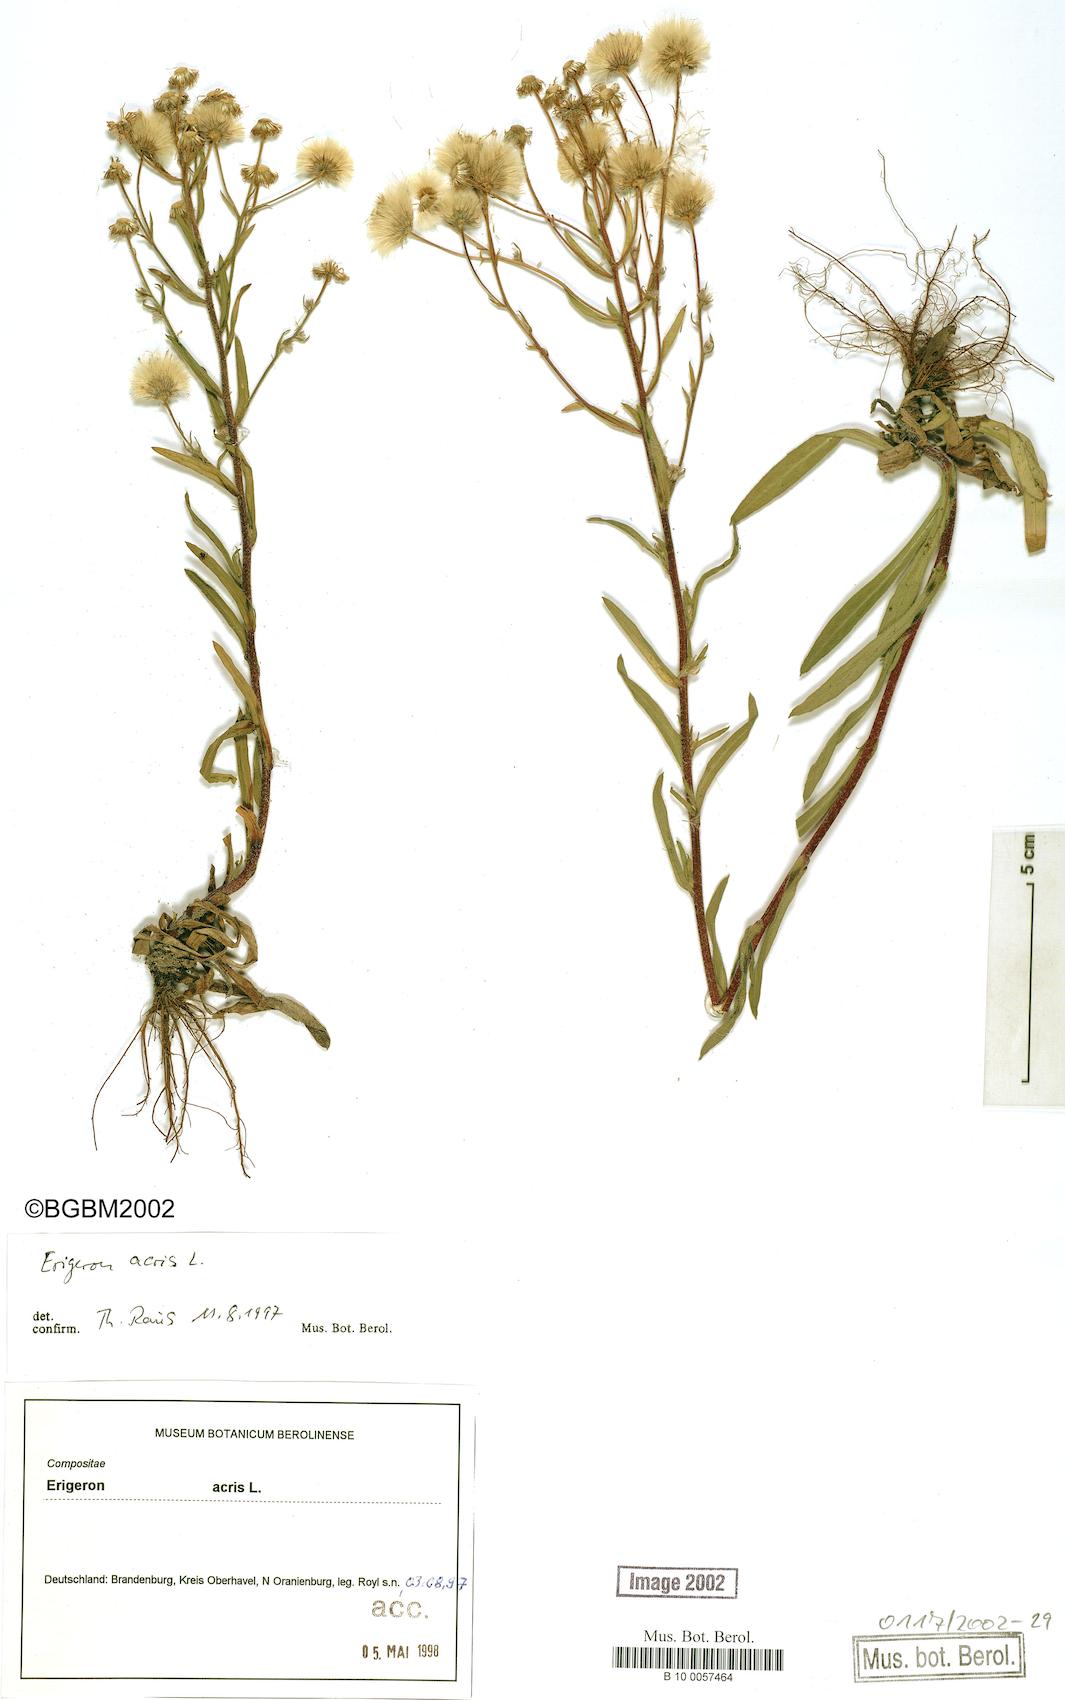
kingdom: Plantae
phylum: Tracheophyta
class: Magnoliopsida
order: Asterales
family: Asteraceae
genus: Erigeron
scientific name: Erigeron acris
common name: Blue fleabane
